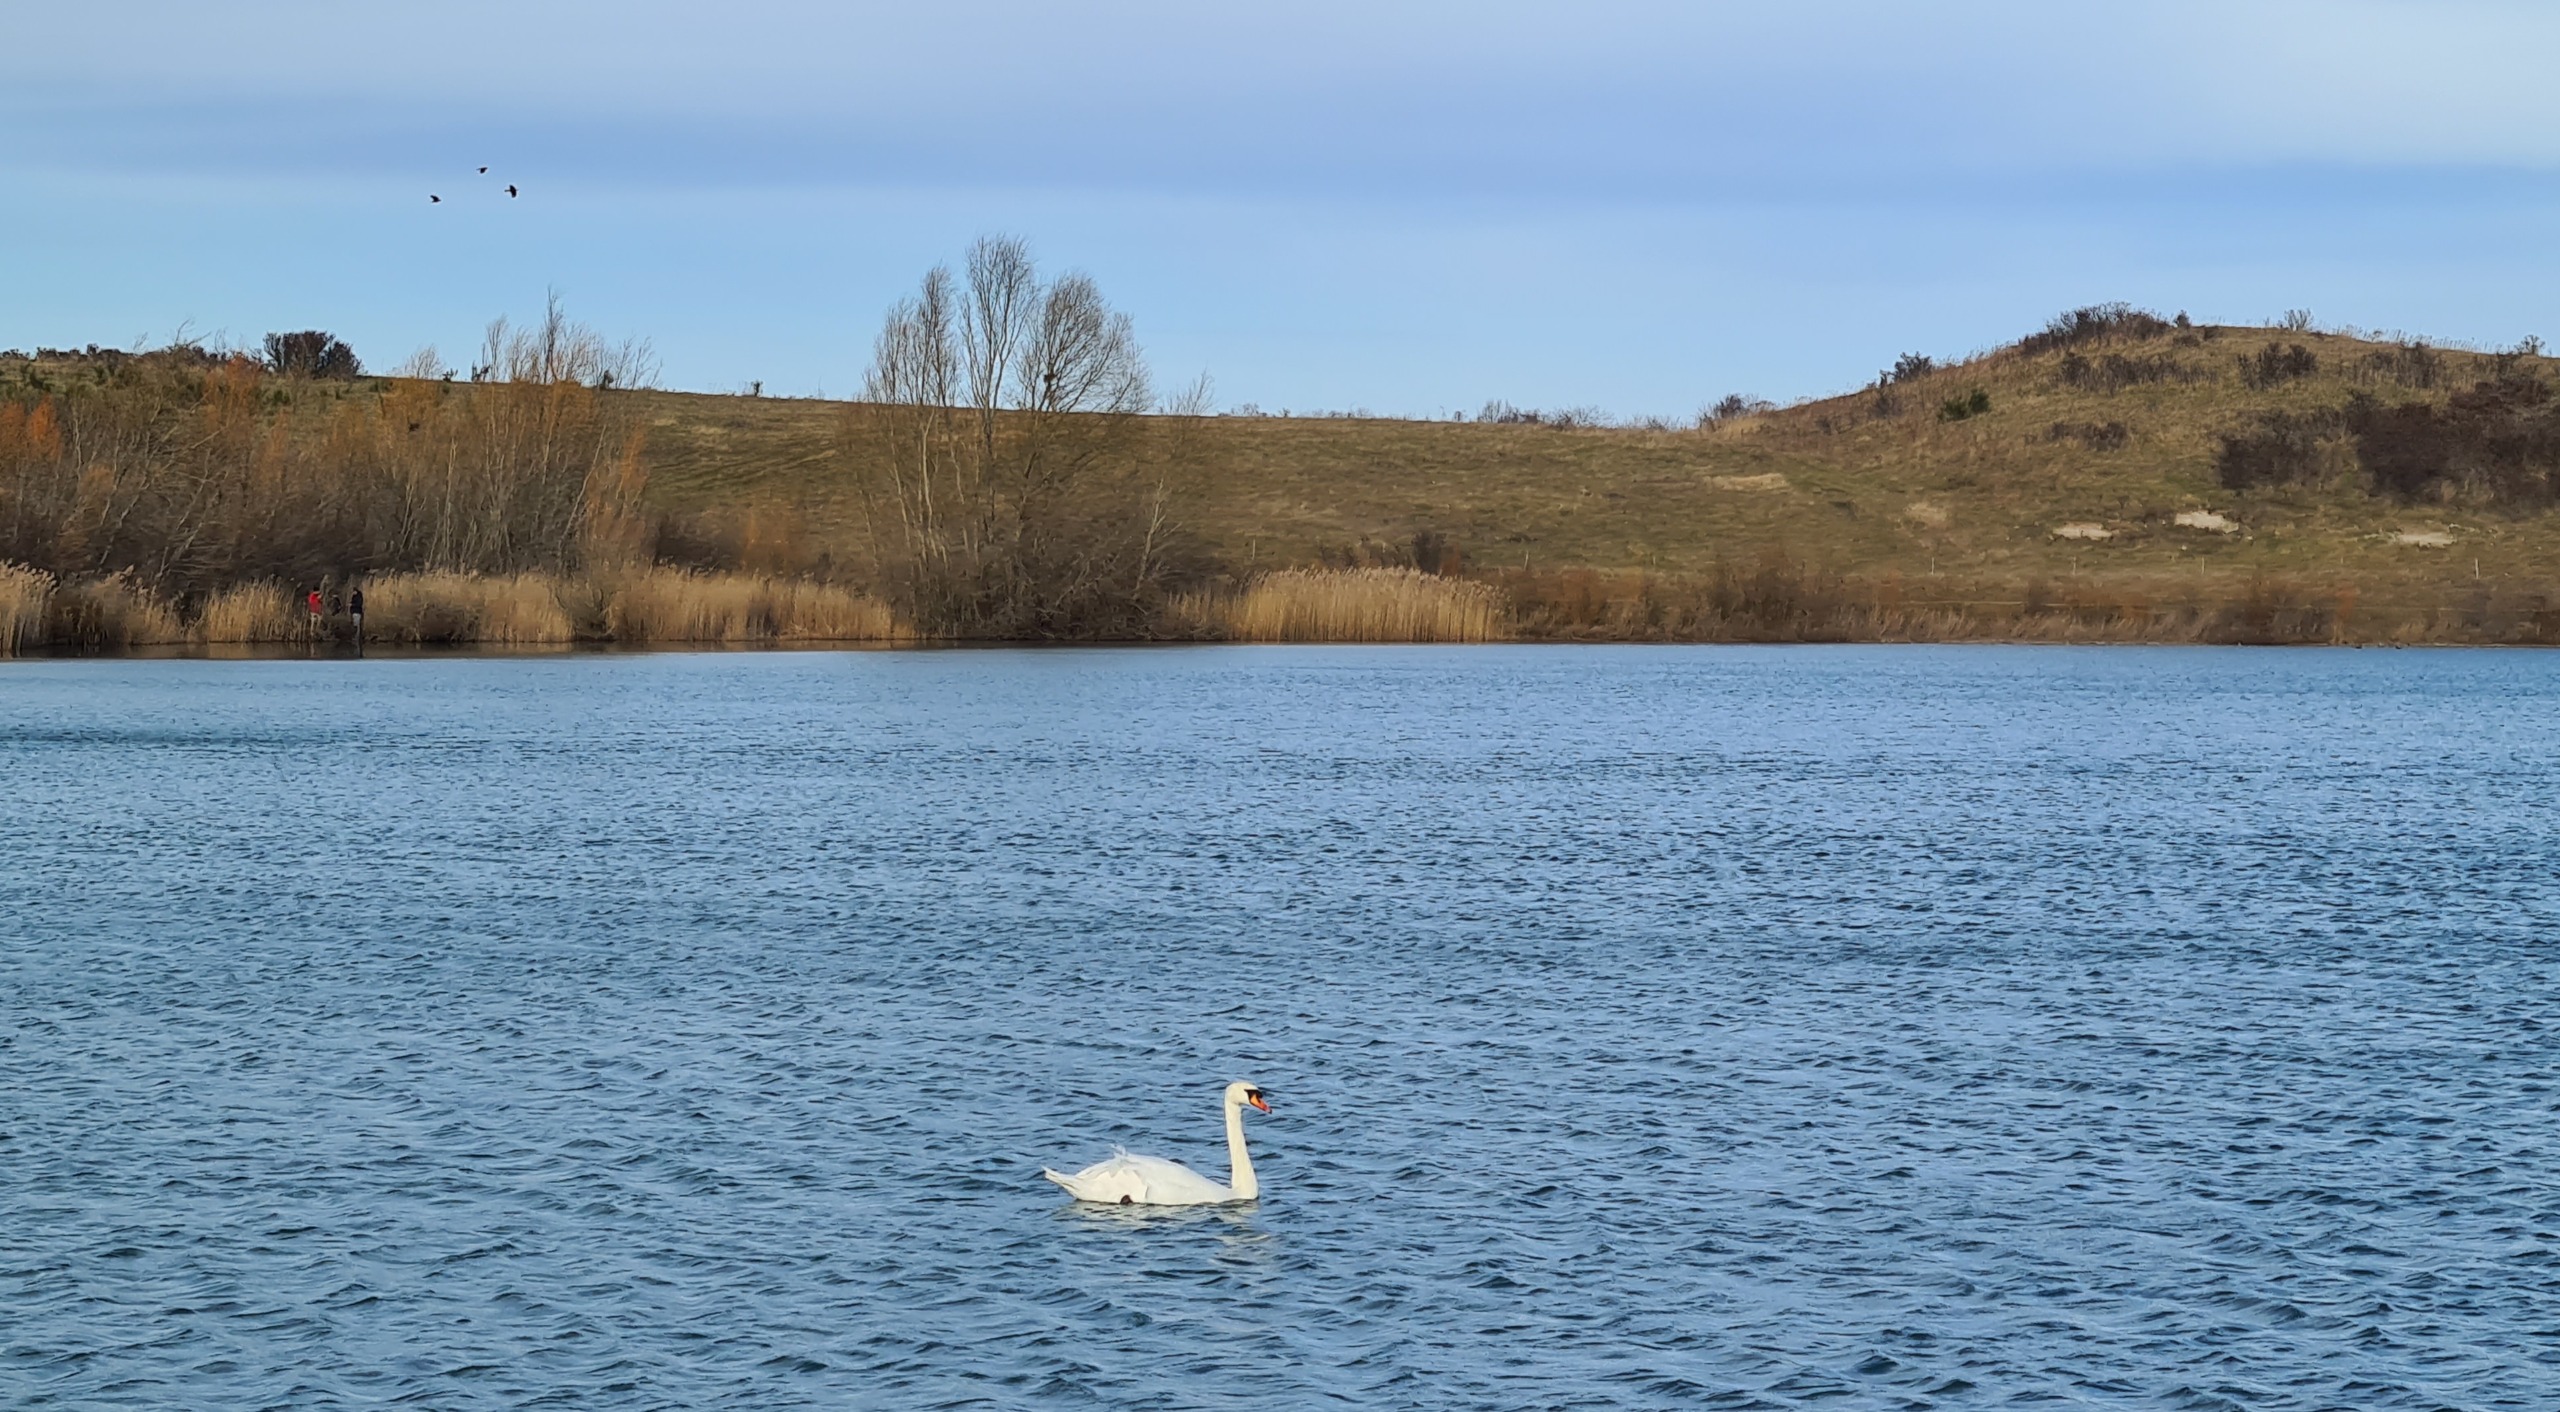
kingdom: Animalia
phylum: Chordata
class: Aves
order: Anseriformes
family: Anatidae
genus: Cygnus
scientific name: Cygnus olor
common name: Knopsvane
